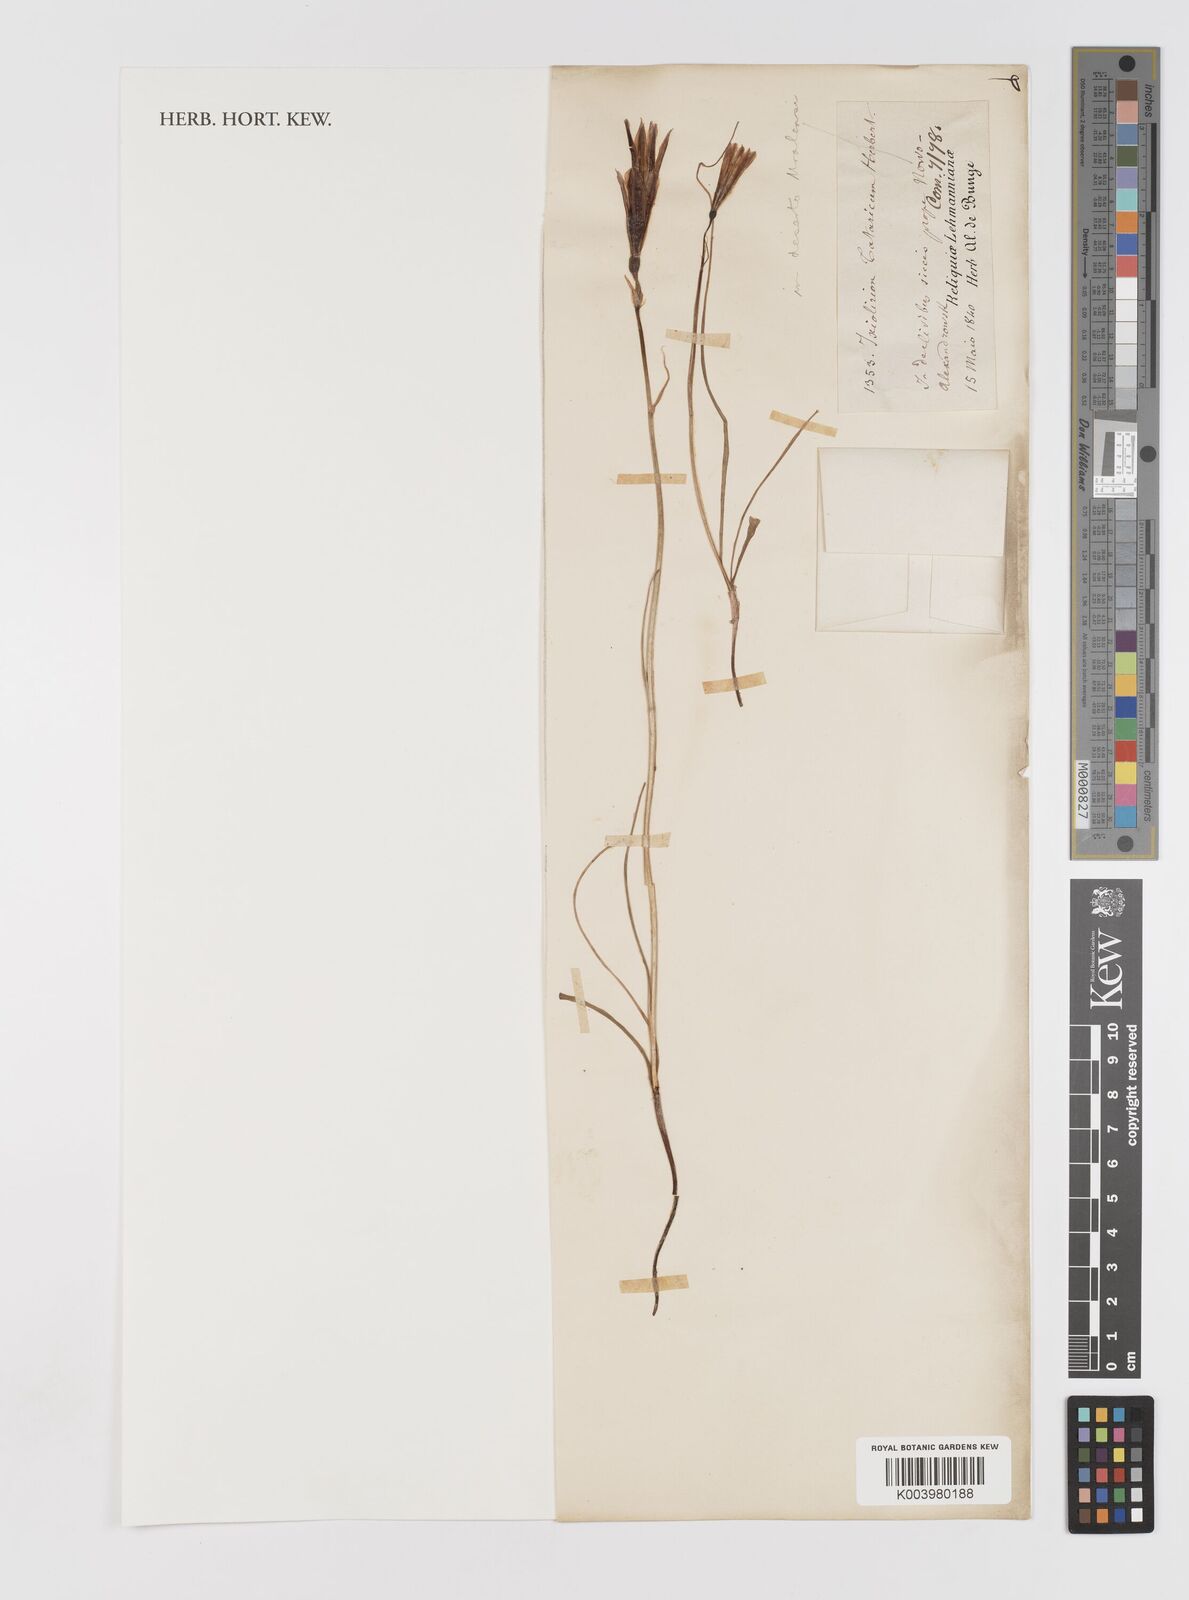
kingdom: Plantae
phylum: Tracheophyta
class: Liliopsida
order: Asparagales
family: Ixioliriaceae
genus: Ixiolirion
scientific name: Ixiolirion tataricum
